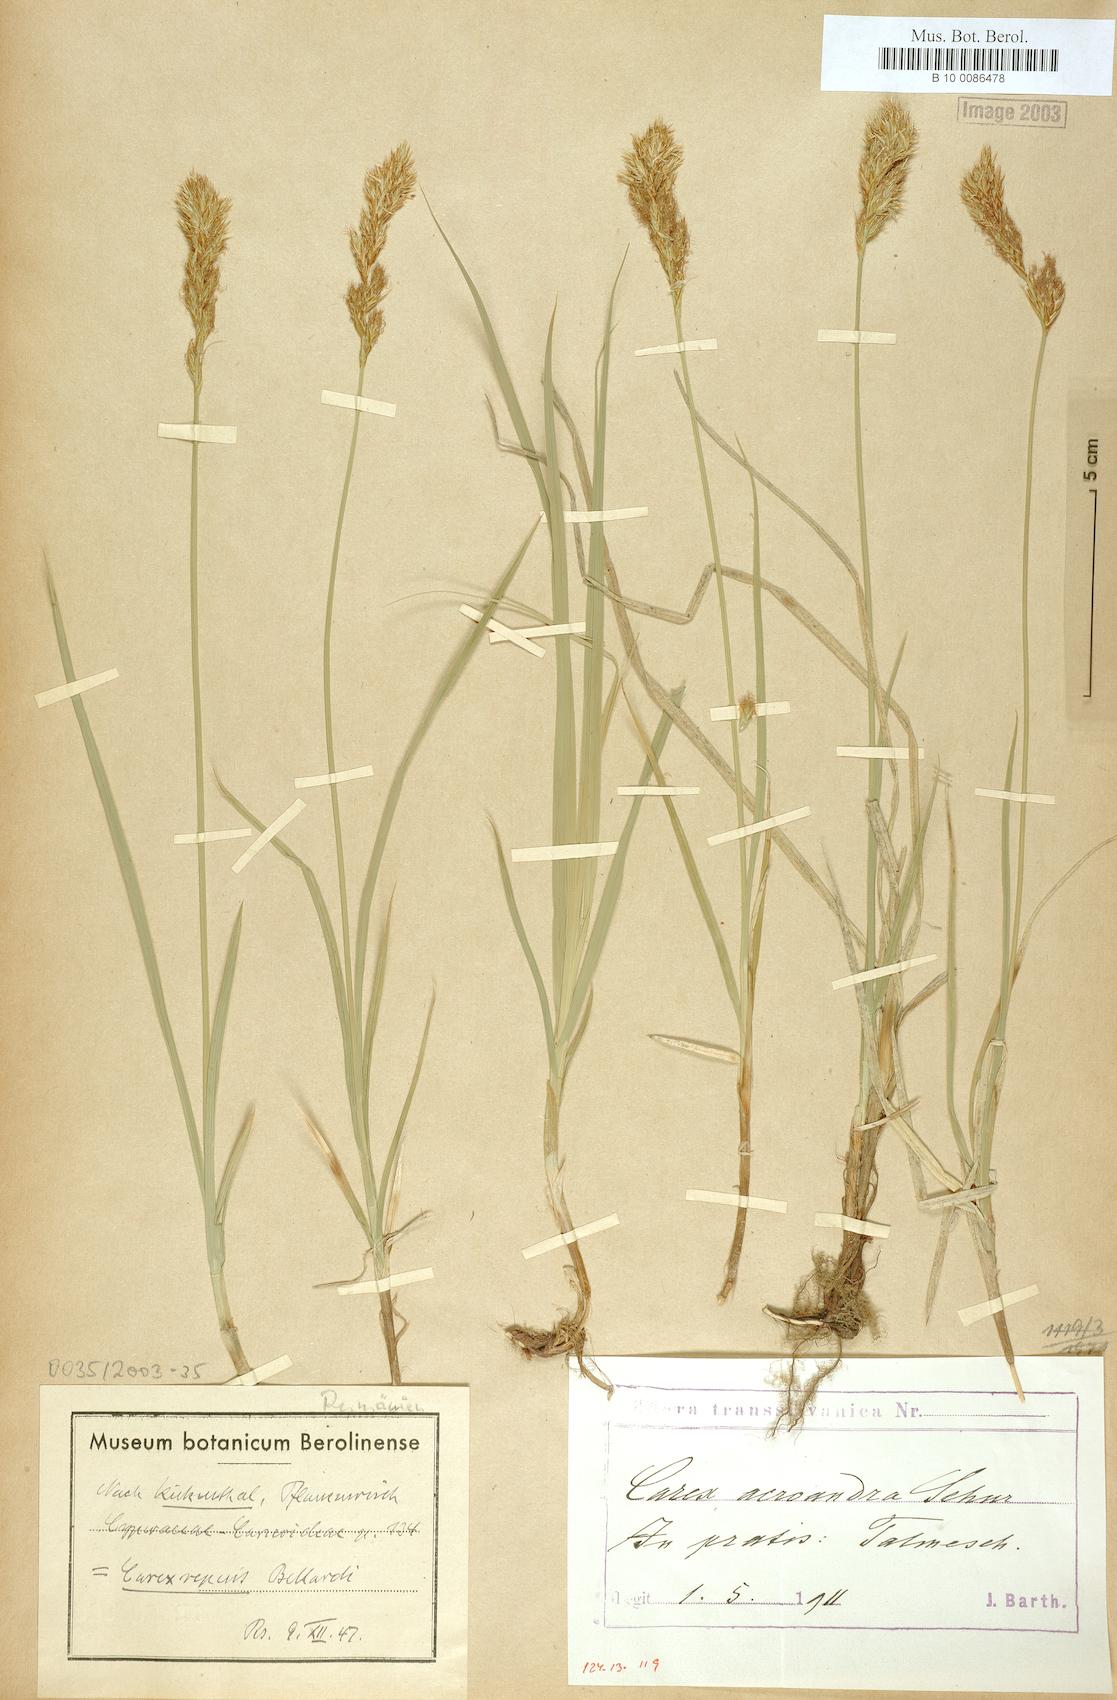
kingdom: Plantae
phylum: Tracheophyta
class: Liliopsida
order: Poales
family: Cyperaceae
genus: Carex
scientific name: Carex repens
